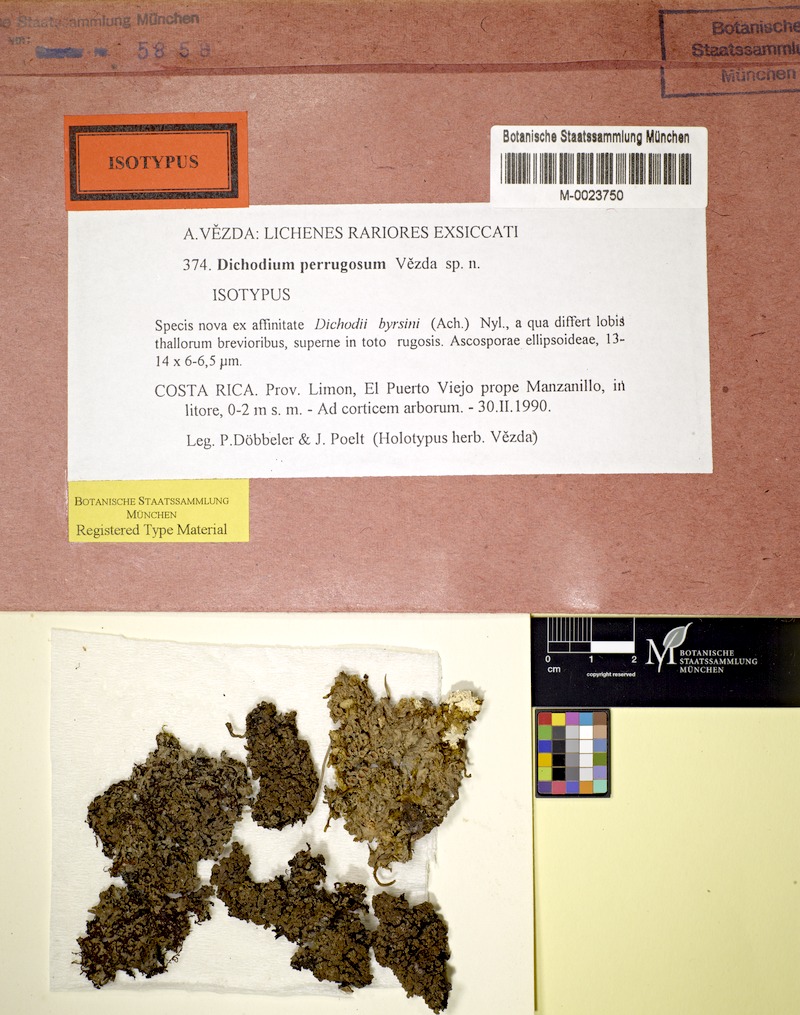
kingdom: Fungi
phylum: Ascomycota
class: Lecanoromycetes
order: Peltigerales
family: Pannariaceae
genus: Physma
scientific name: Physma
